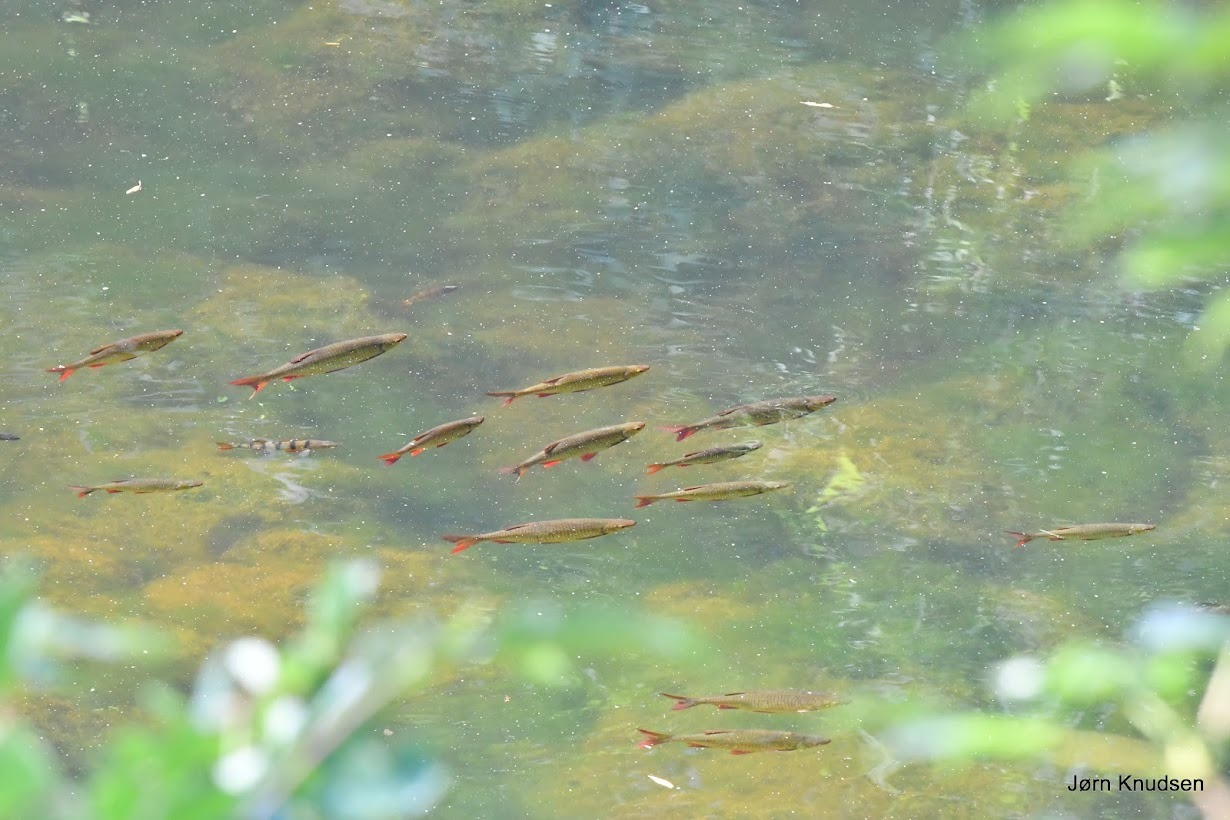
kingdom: Animalia
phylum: Chordata
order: Cypriniformes
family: Cyprinidae
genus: Scardinius
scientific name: Scardinius erythrophthalmus
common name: Rudskalle
